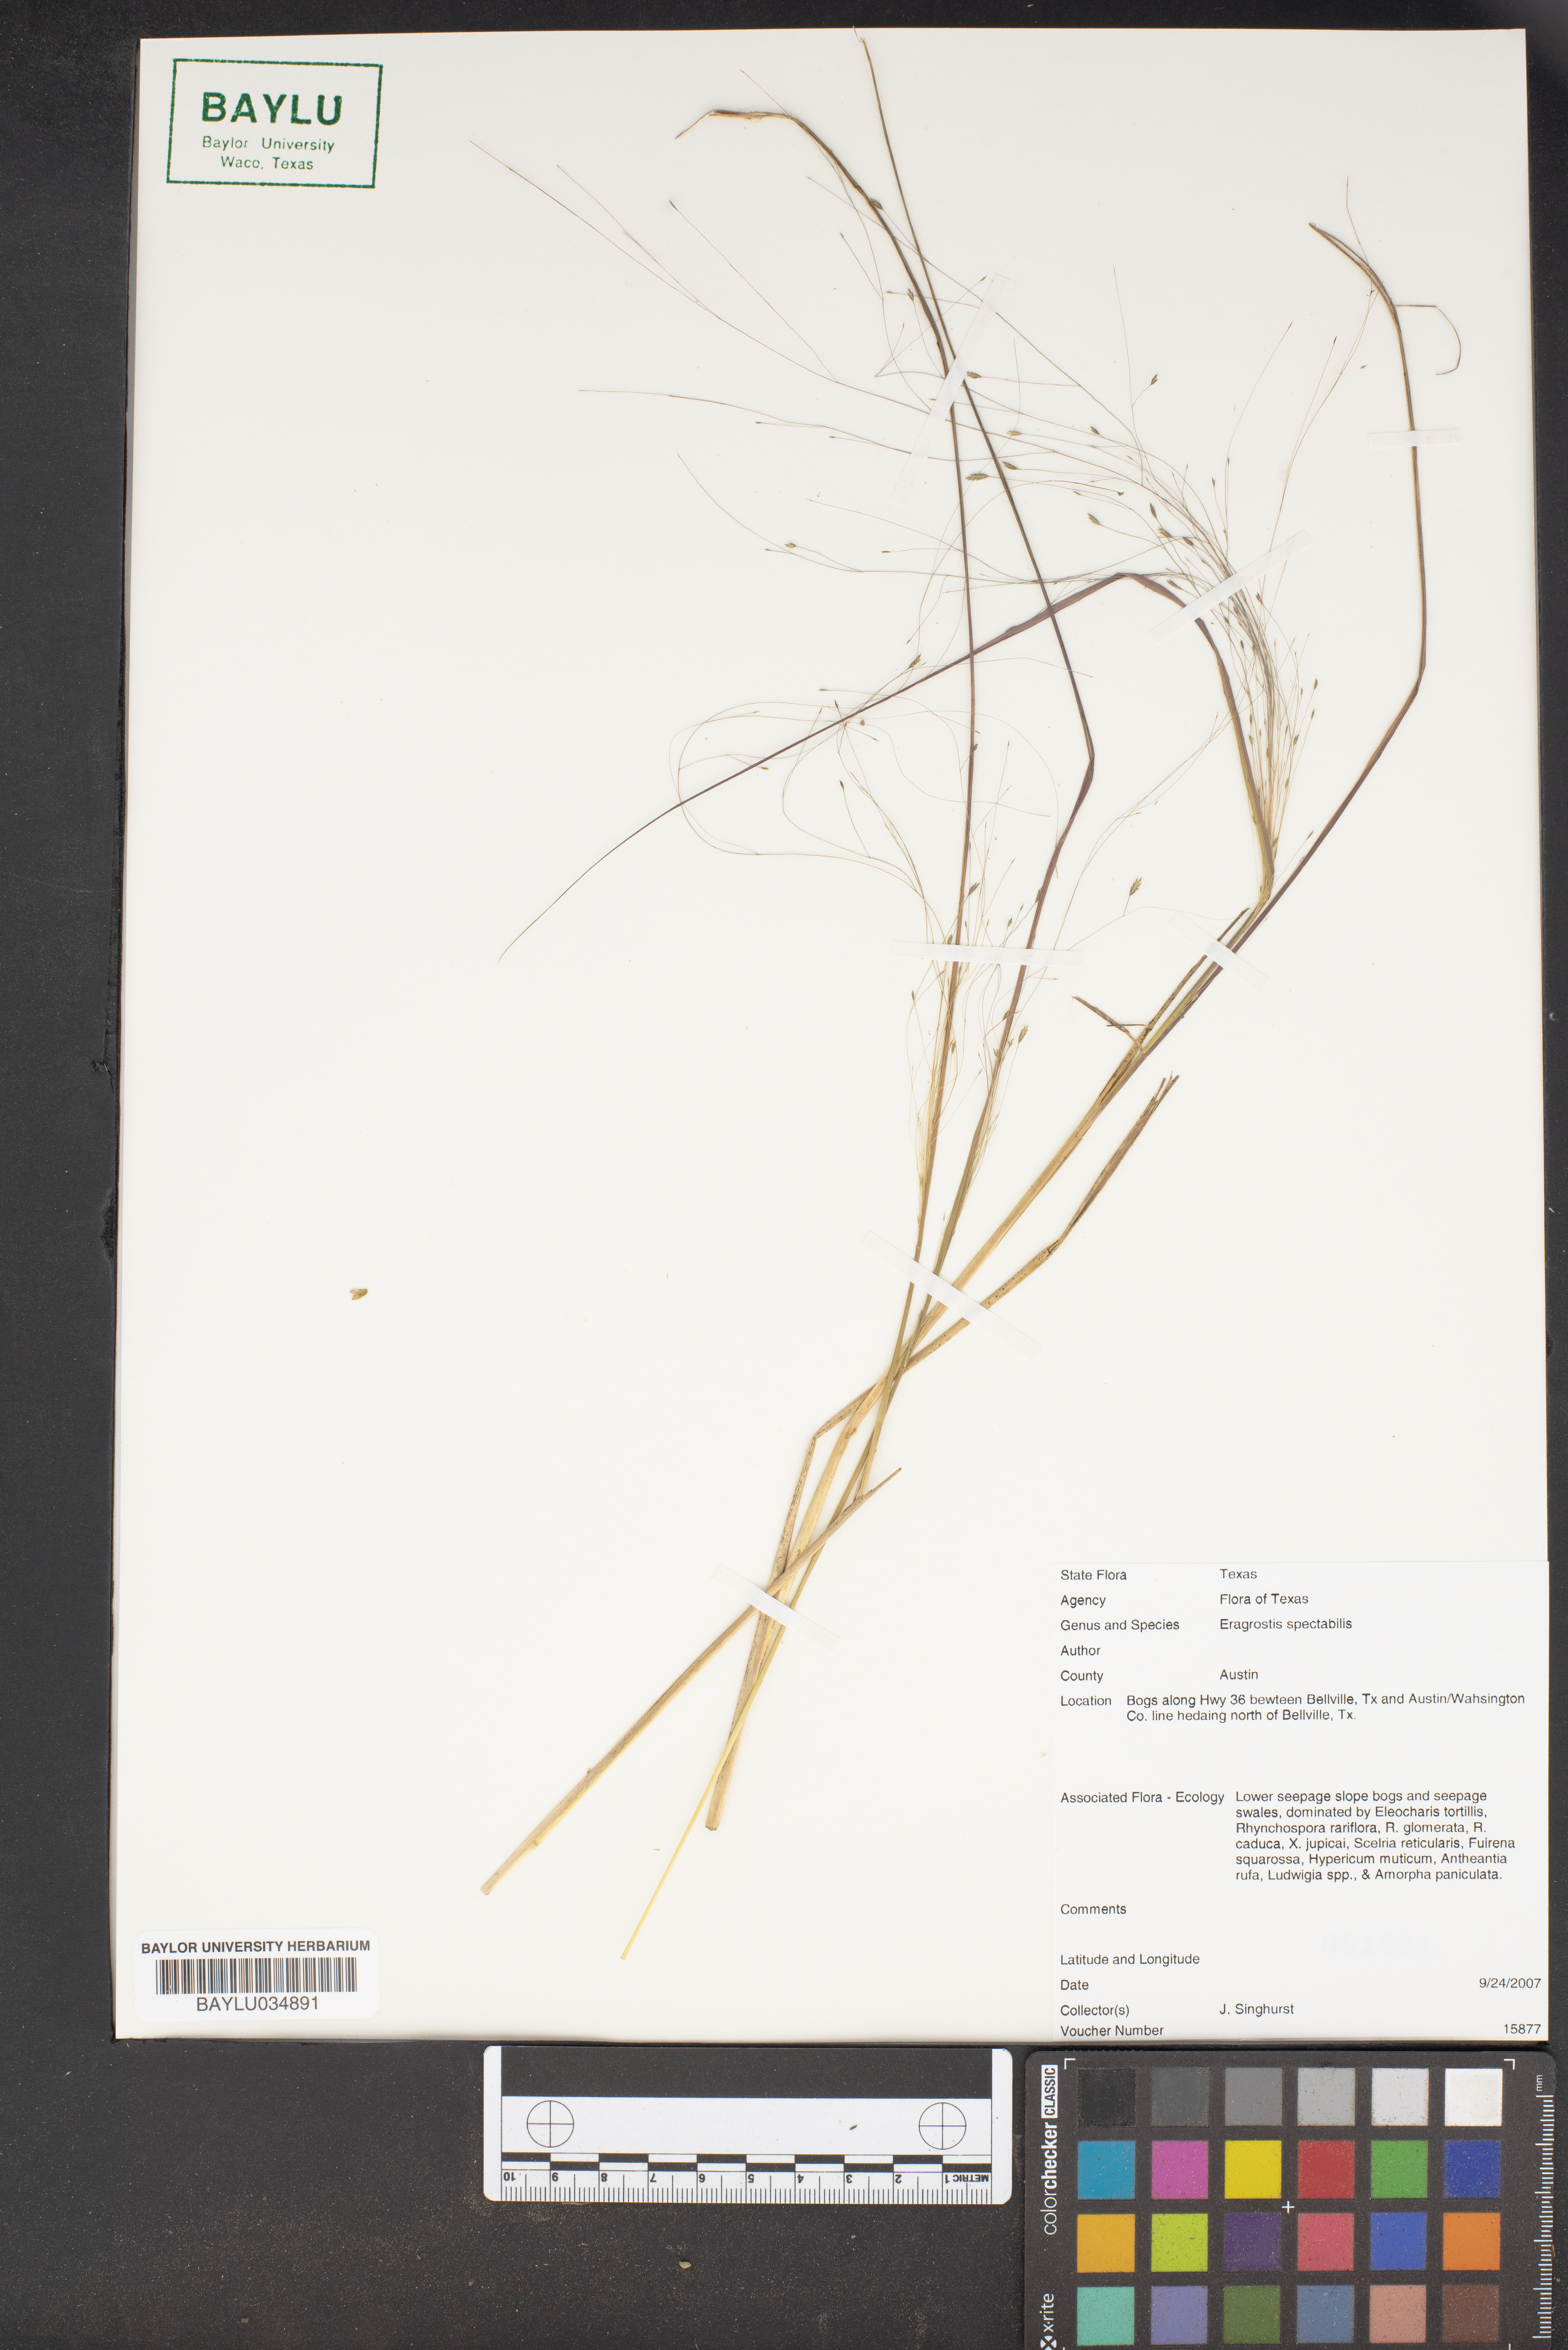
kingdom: Plantae
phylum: Tracheophyta
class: Liliopsida
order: Poales
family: Poaceae
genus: Eragrostis
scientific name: Eragrostis spectabilis
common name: Petticoat-climber
